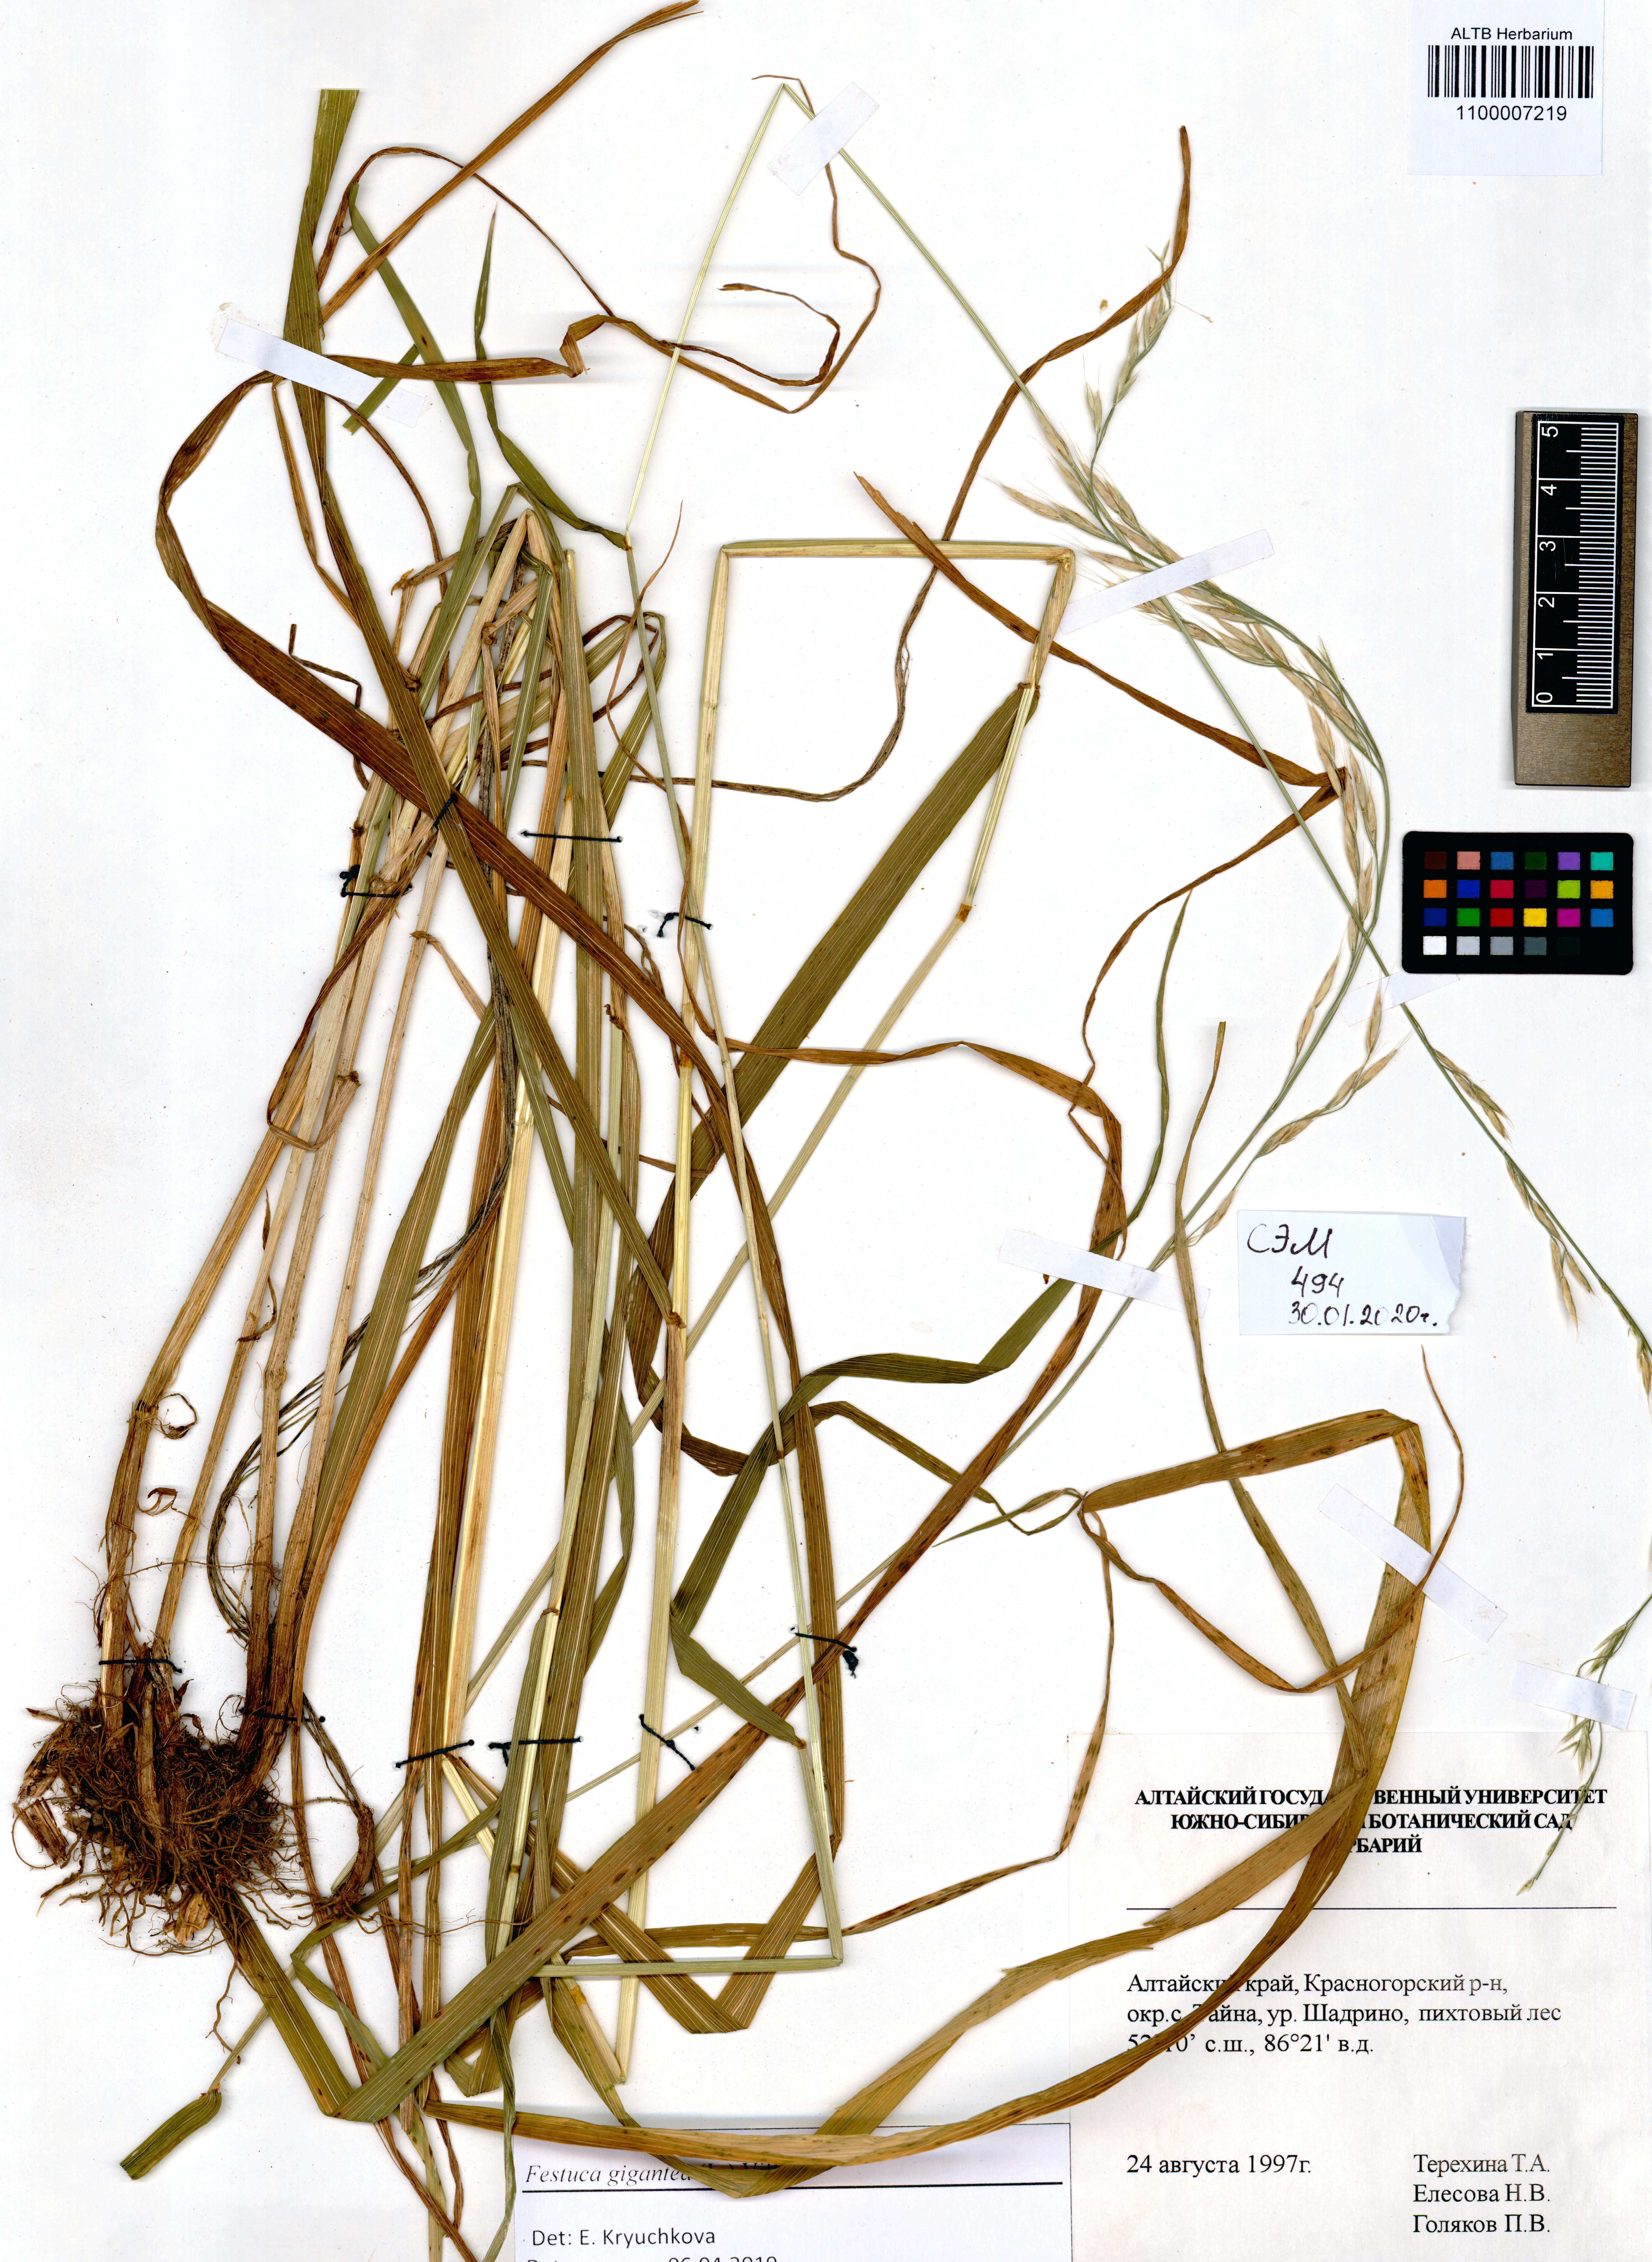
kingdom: Plantae
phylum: Tracheophyta
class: Liliopsida
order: Poales
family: Poaceae
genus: Lolium
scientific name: Lolium giganteum
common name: Giant fescue
